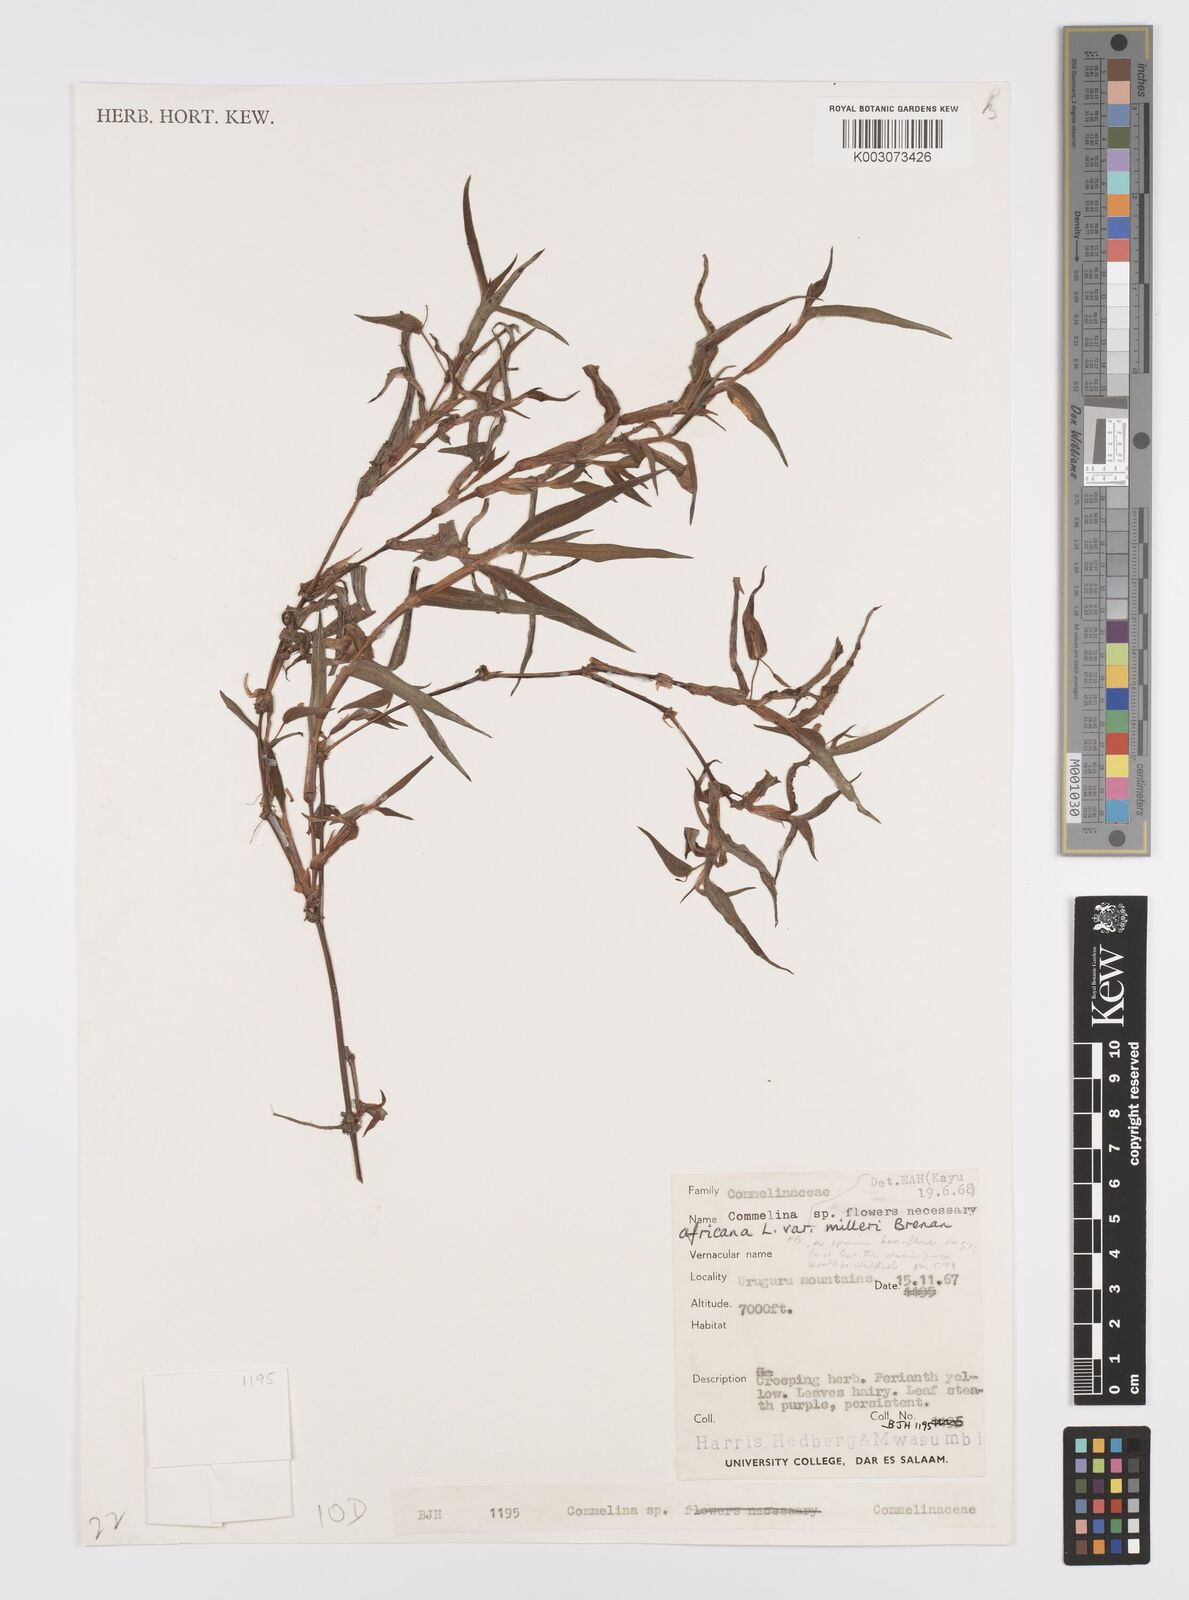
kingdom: Plantae
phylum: Tracheophyta
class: Liliopsida
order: Commelinales
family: Commelinaceae
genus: Commelina
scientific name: Commelina africana
